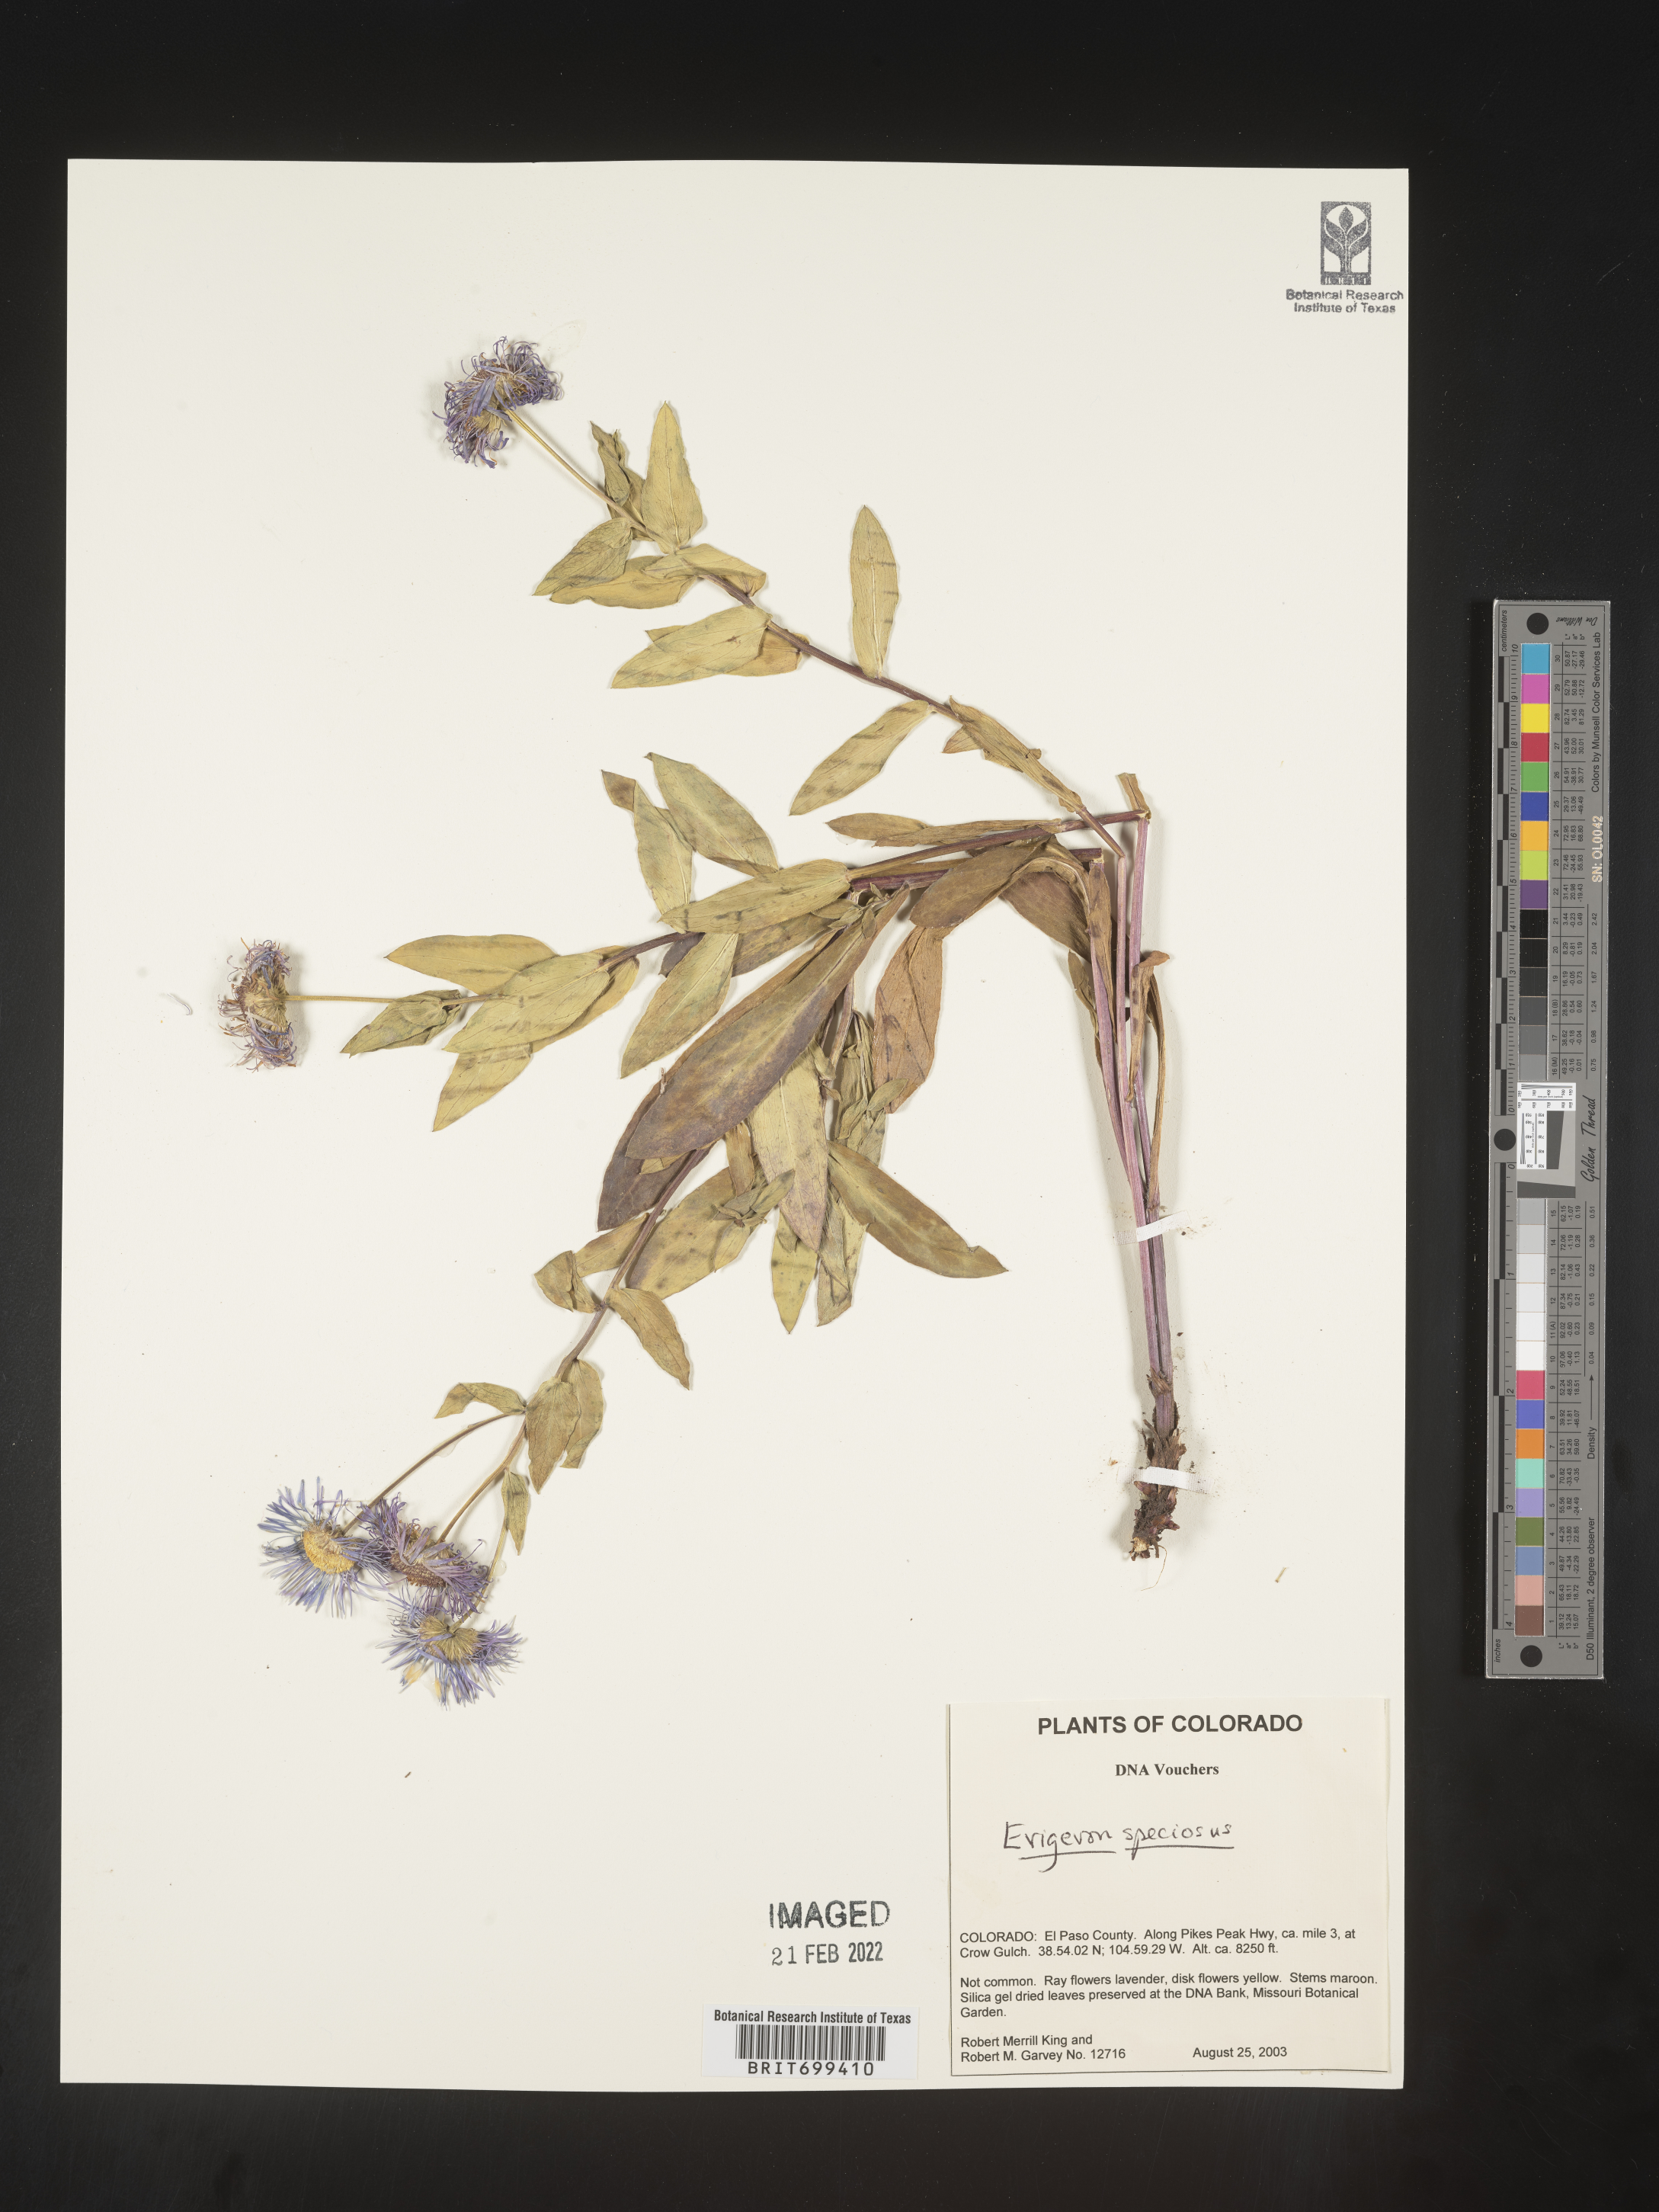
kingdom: Plantae
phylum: Tracheophyta
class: Magnoliopsida
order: Asterales
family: Asteraceae
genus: Erigeron
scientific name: Erigeron speciosus
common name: Aspen fleabane
